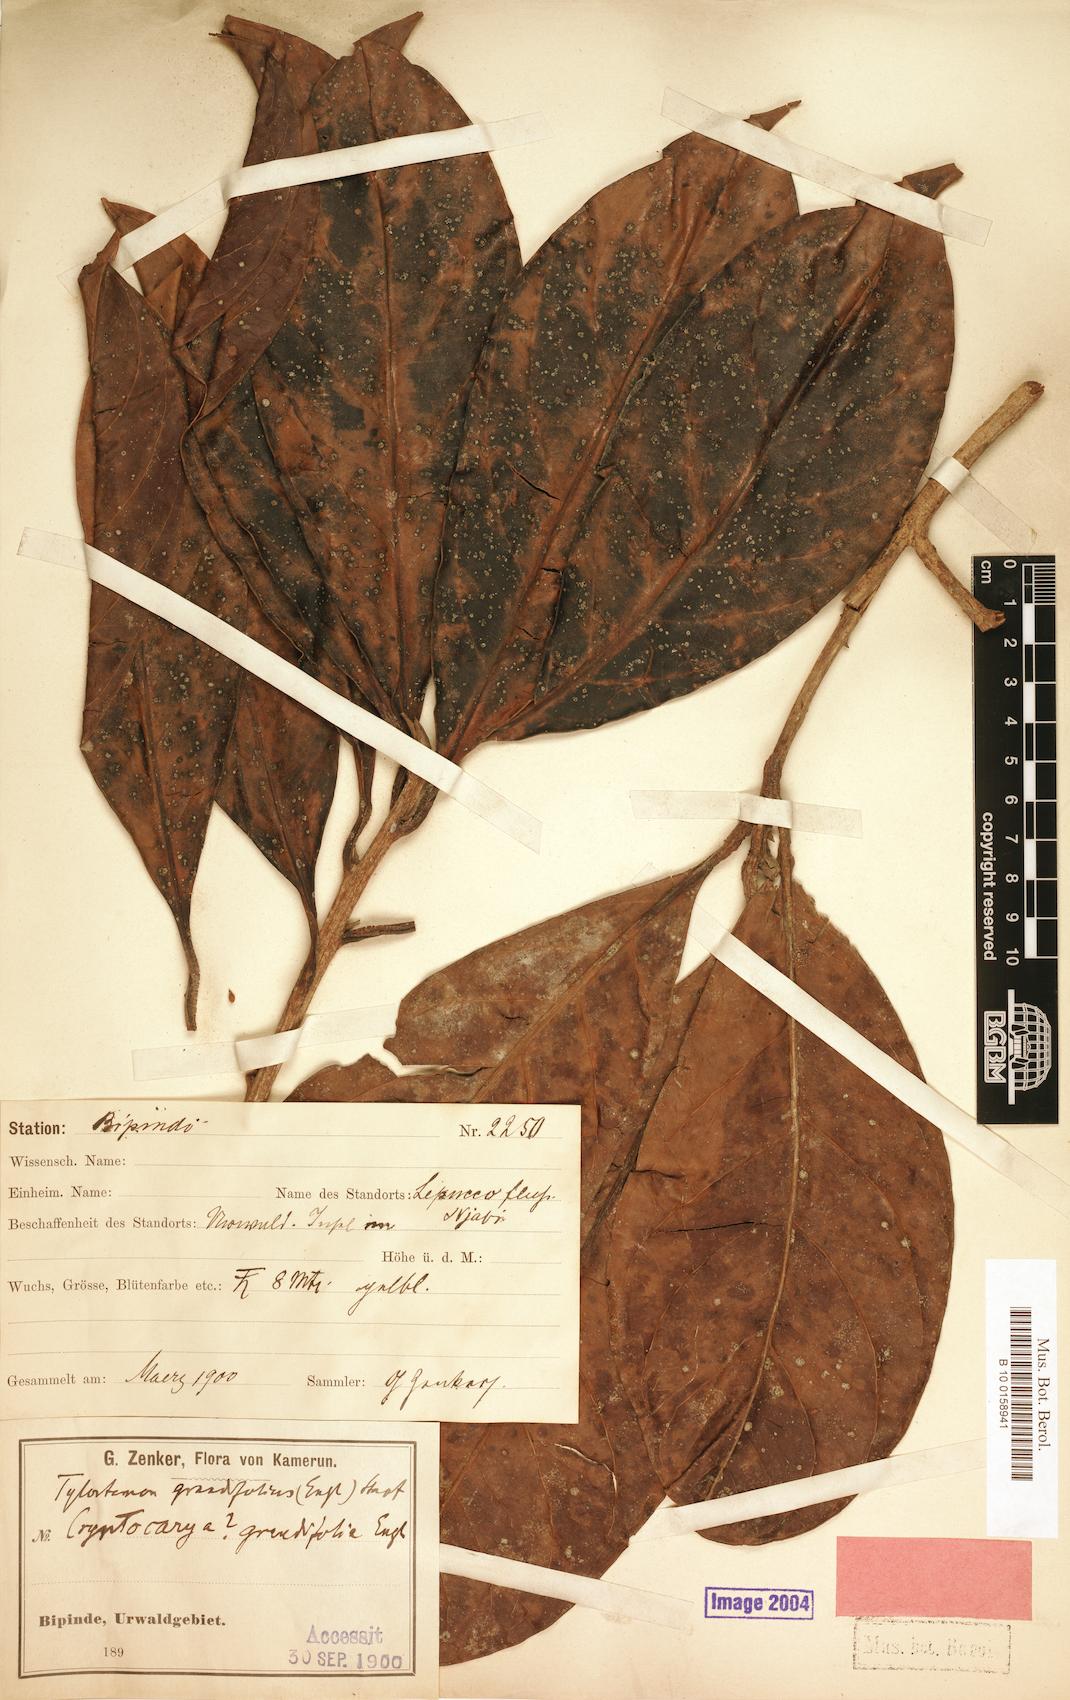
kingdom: Plantae
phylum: Tracheophyta
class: Magnoliopsida
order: Laurales
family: Lauraceae
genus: Beilschmiedia
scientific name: Beilschmiedia grandifolia
